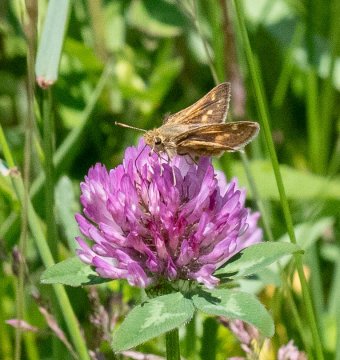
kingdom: Animalia
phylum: Arthropoda
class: Insecta
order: Lepidoptera
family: Hesperiidae
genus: Polites
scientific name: Polites coras
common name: Peck's Skipper
